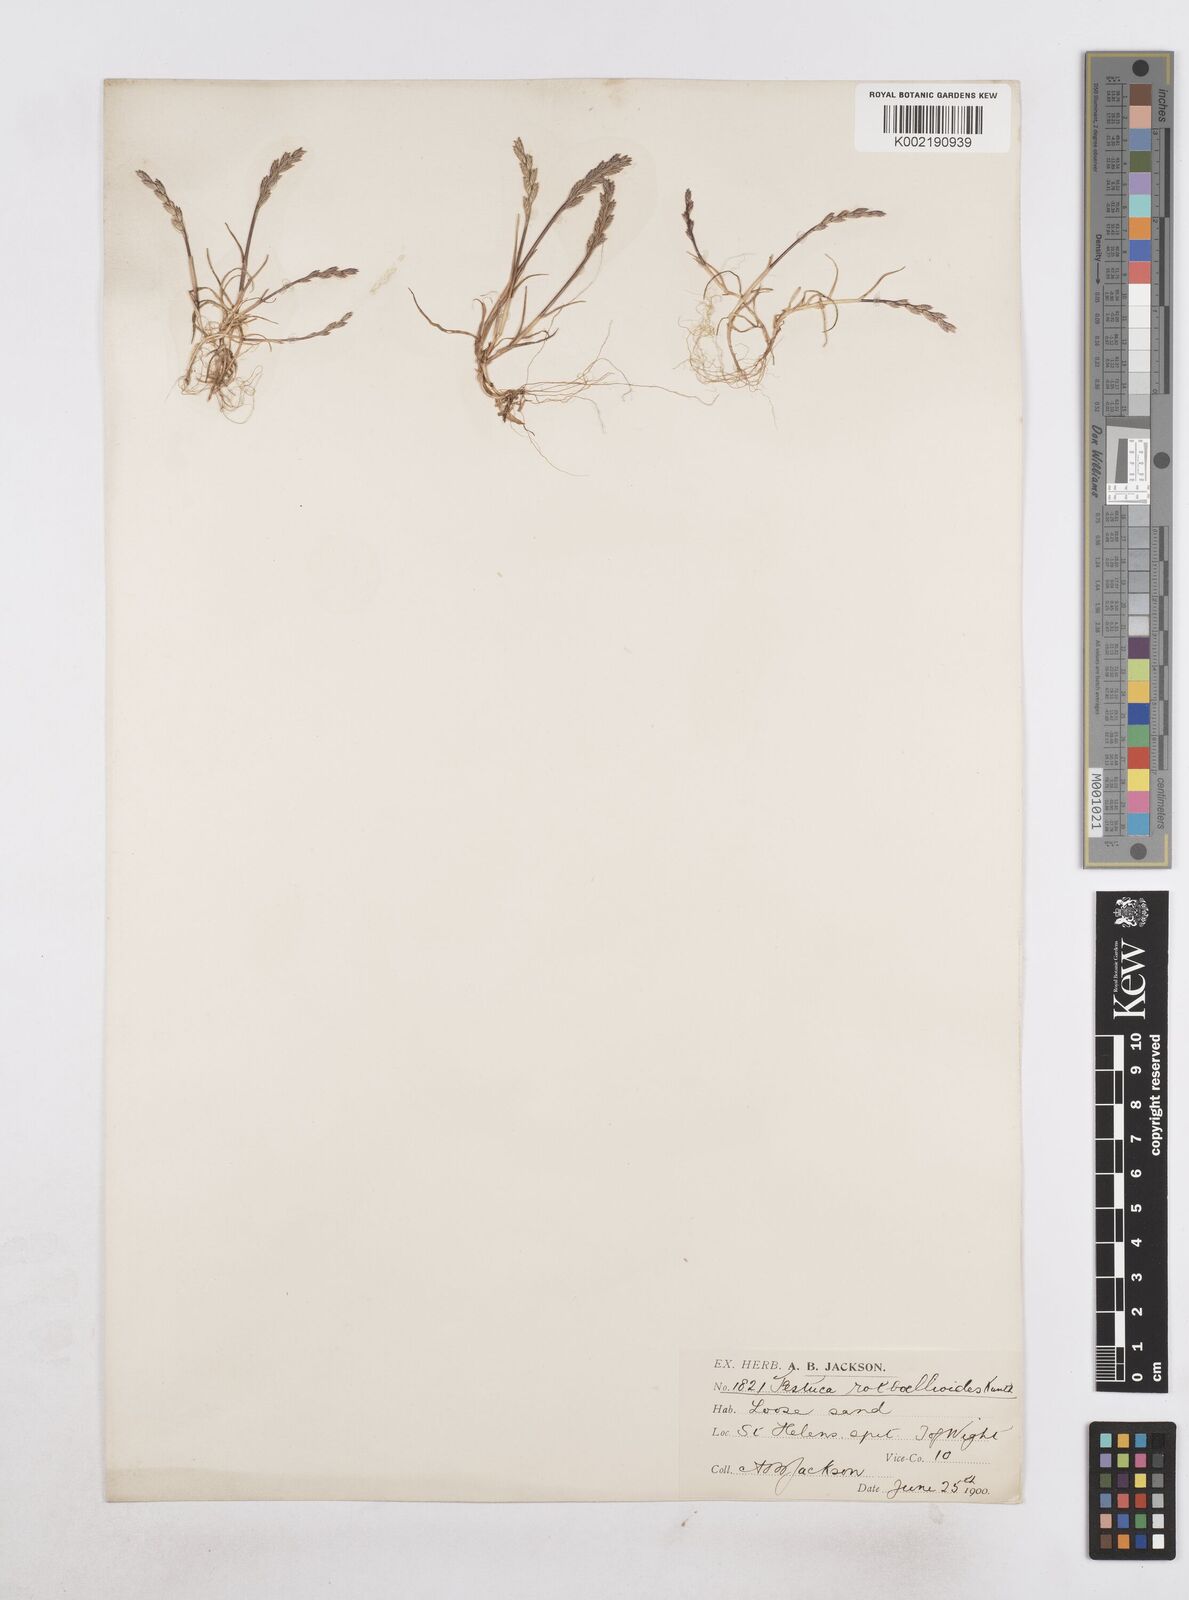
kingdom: Plantae
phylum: Tracheophyta
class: Liliopsida
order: Poales
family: Poaceae
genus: Catapodium
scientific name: Catapodium marinum
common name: Sea fern-grass
